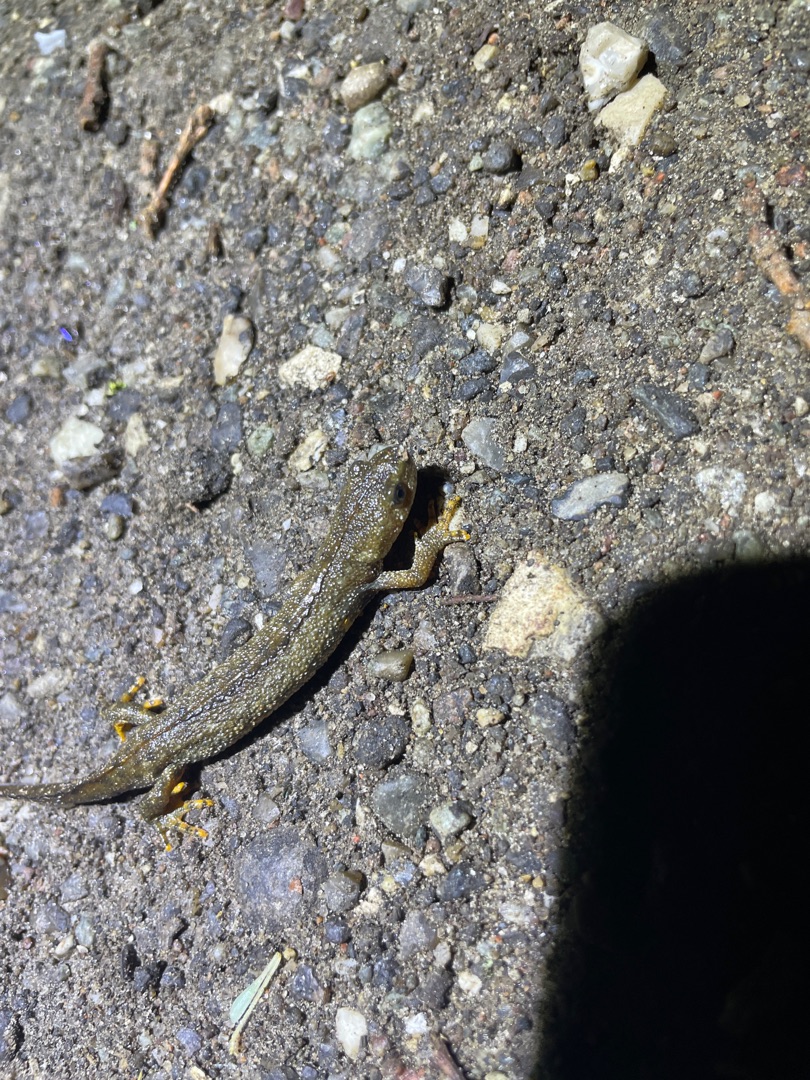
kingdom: Animalia
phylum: Chordata
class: Amphibia
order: Caudata
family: Salamandridae
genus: Triturus
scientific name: Triturus cristatus
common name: Stor vandsalamander
